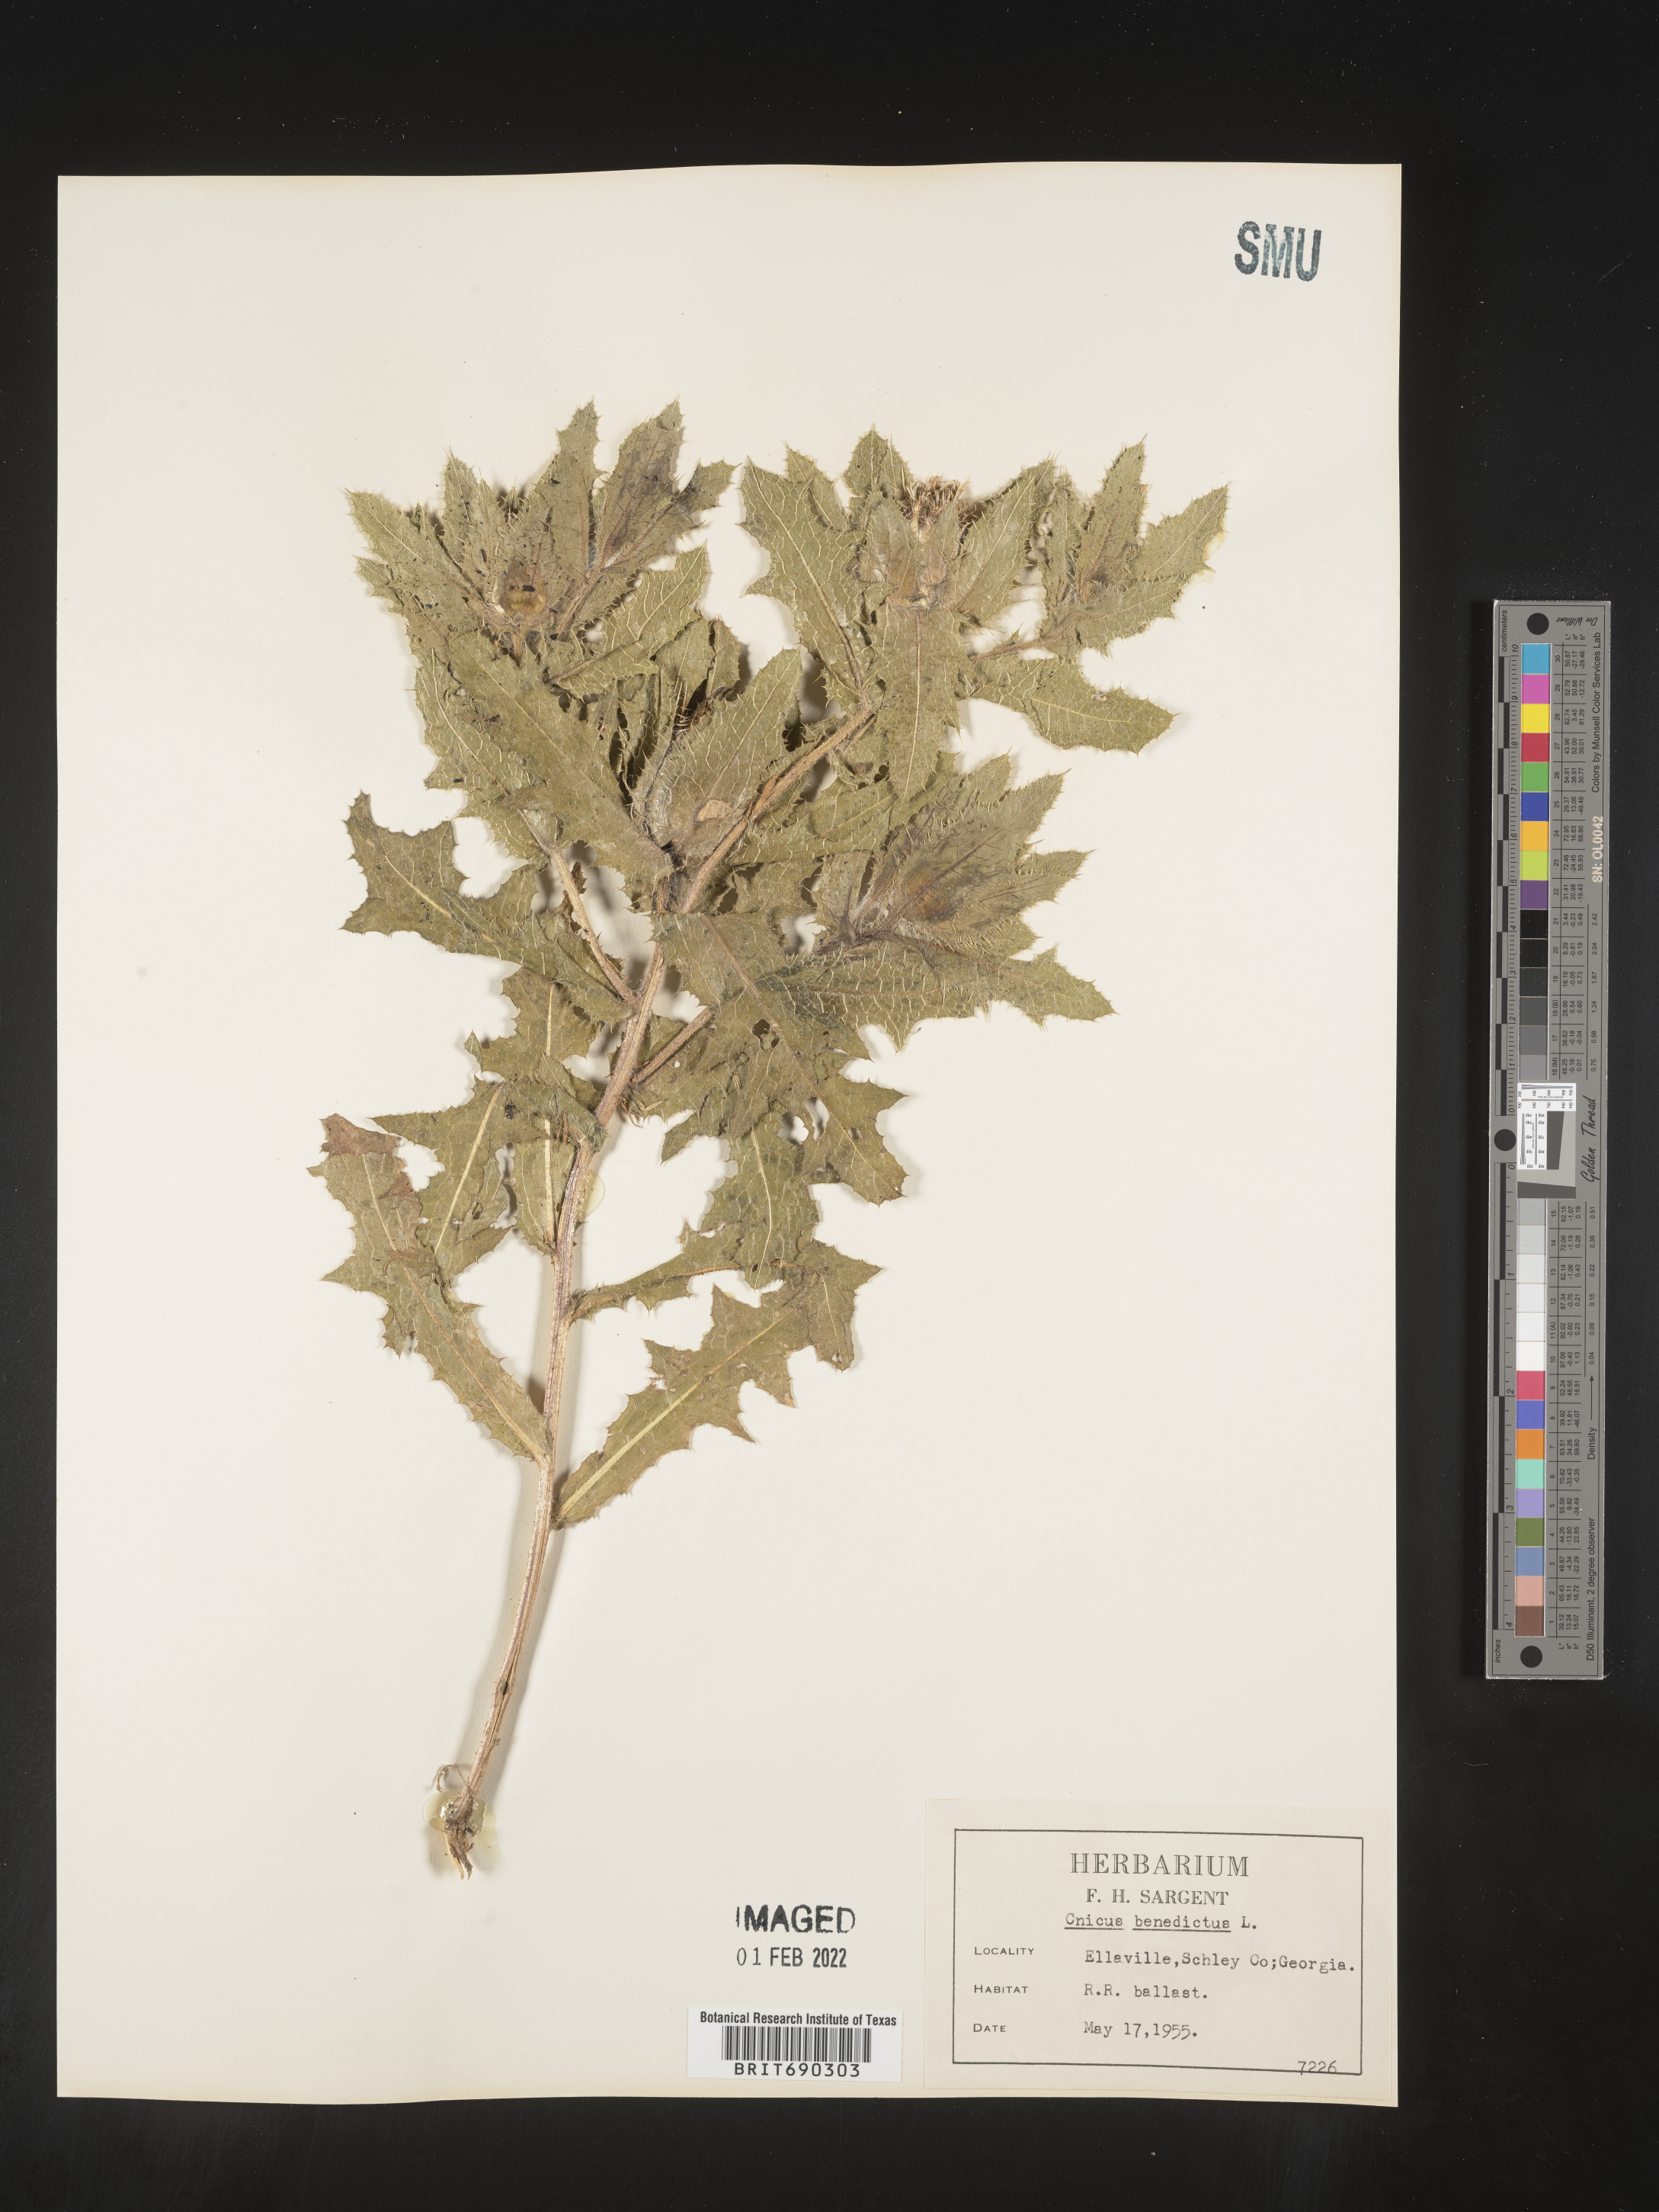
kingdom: Plantae
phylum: Tracheophyta
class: Magnoliopsida
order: Asterales
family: Asteraceae
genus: Centaurea
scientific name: Centaurea
